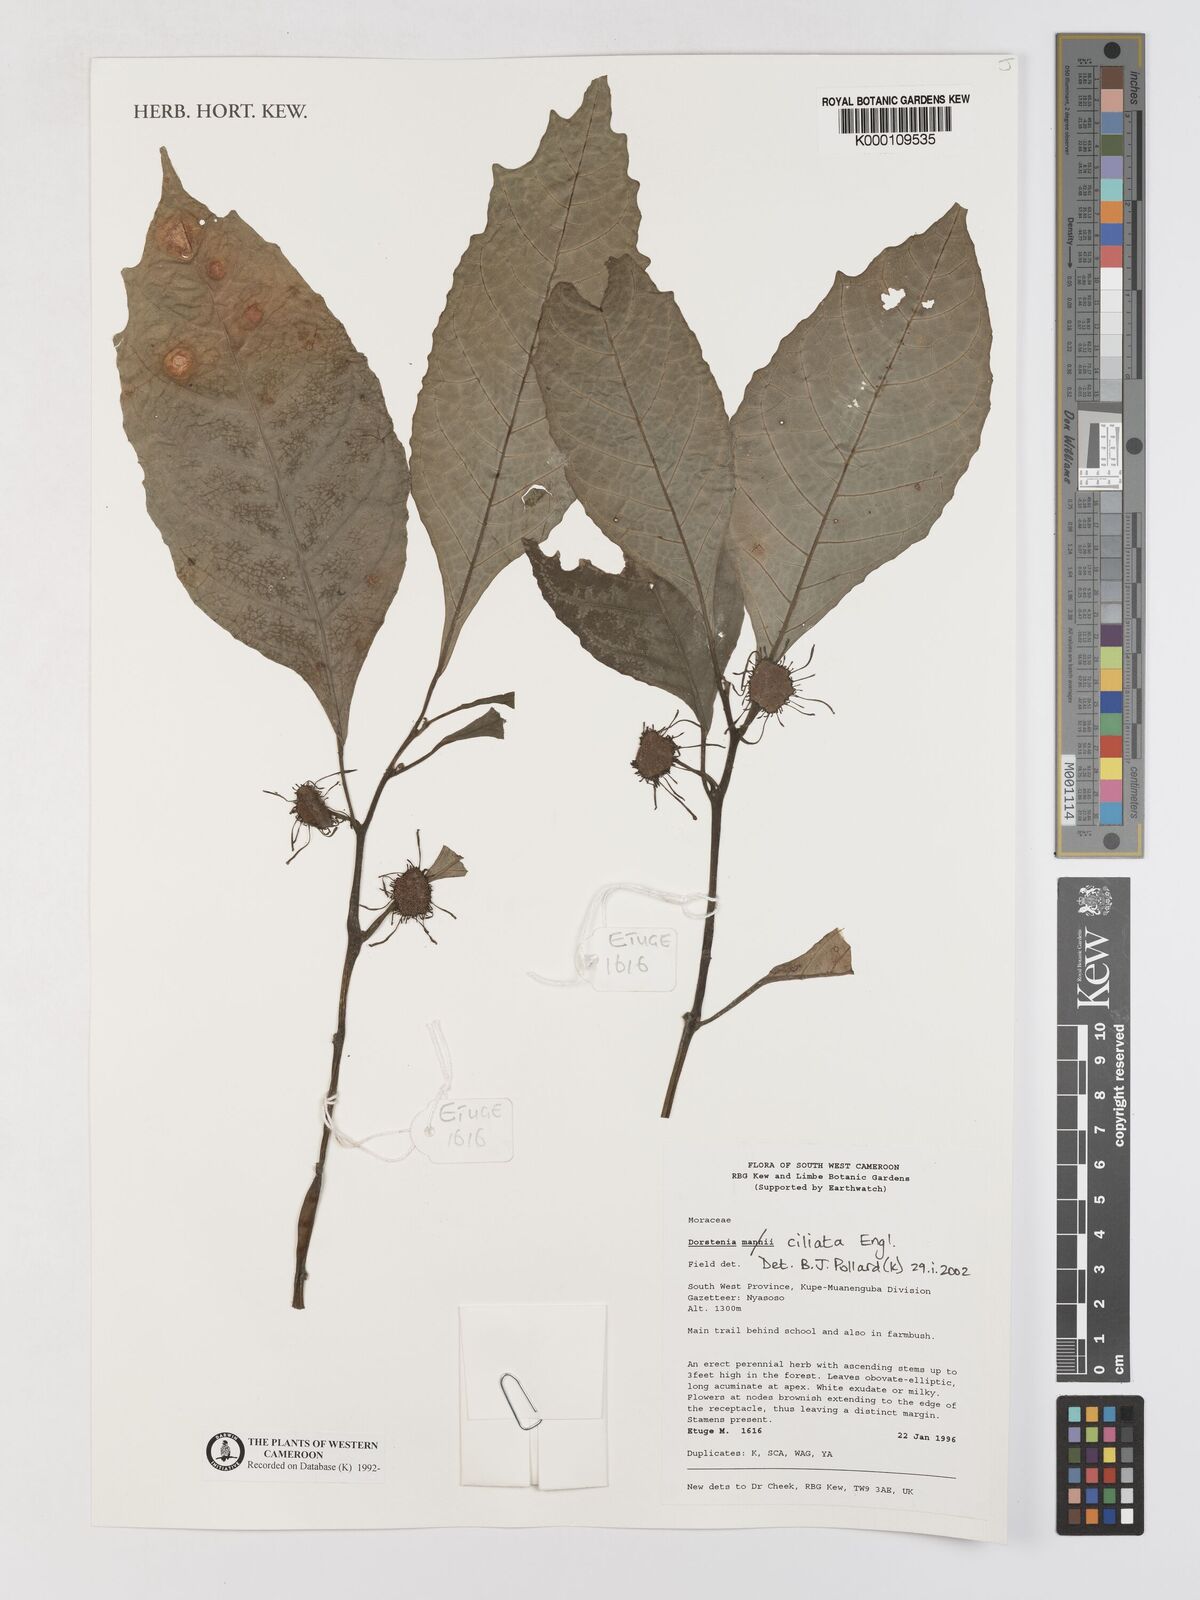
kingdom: Plantae
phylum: Tracheophyta
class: Magnoliopsida
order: Rosales
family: Moraceae
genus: Dorstenia
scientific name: Dorstenia ciliata
